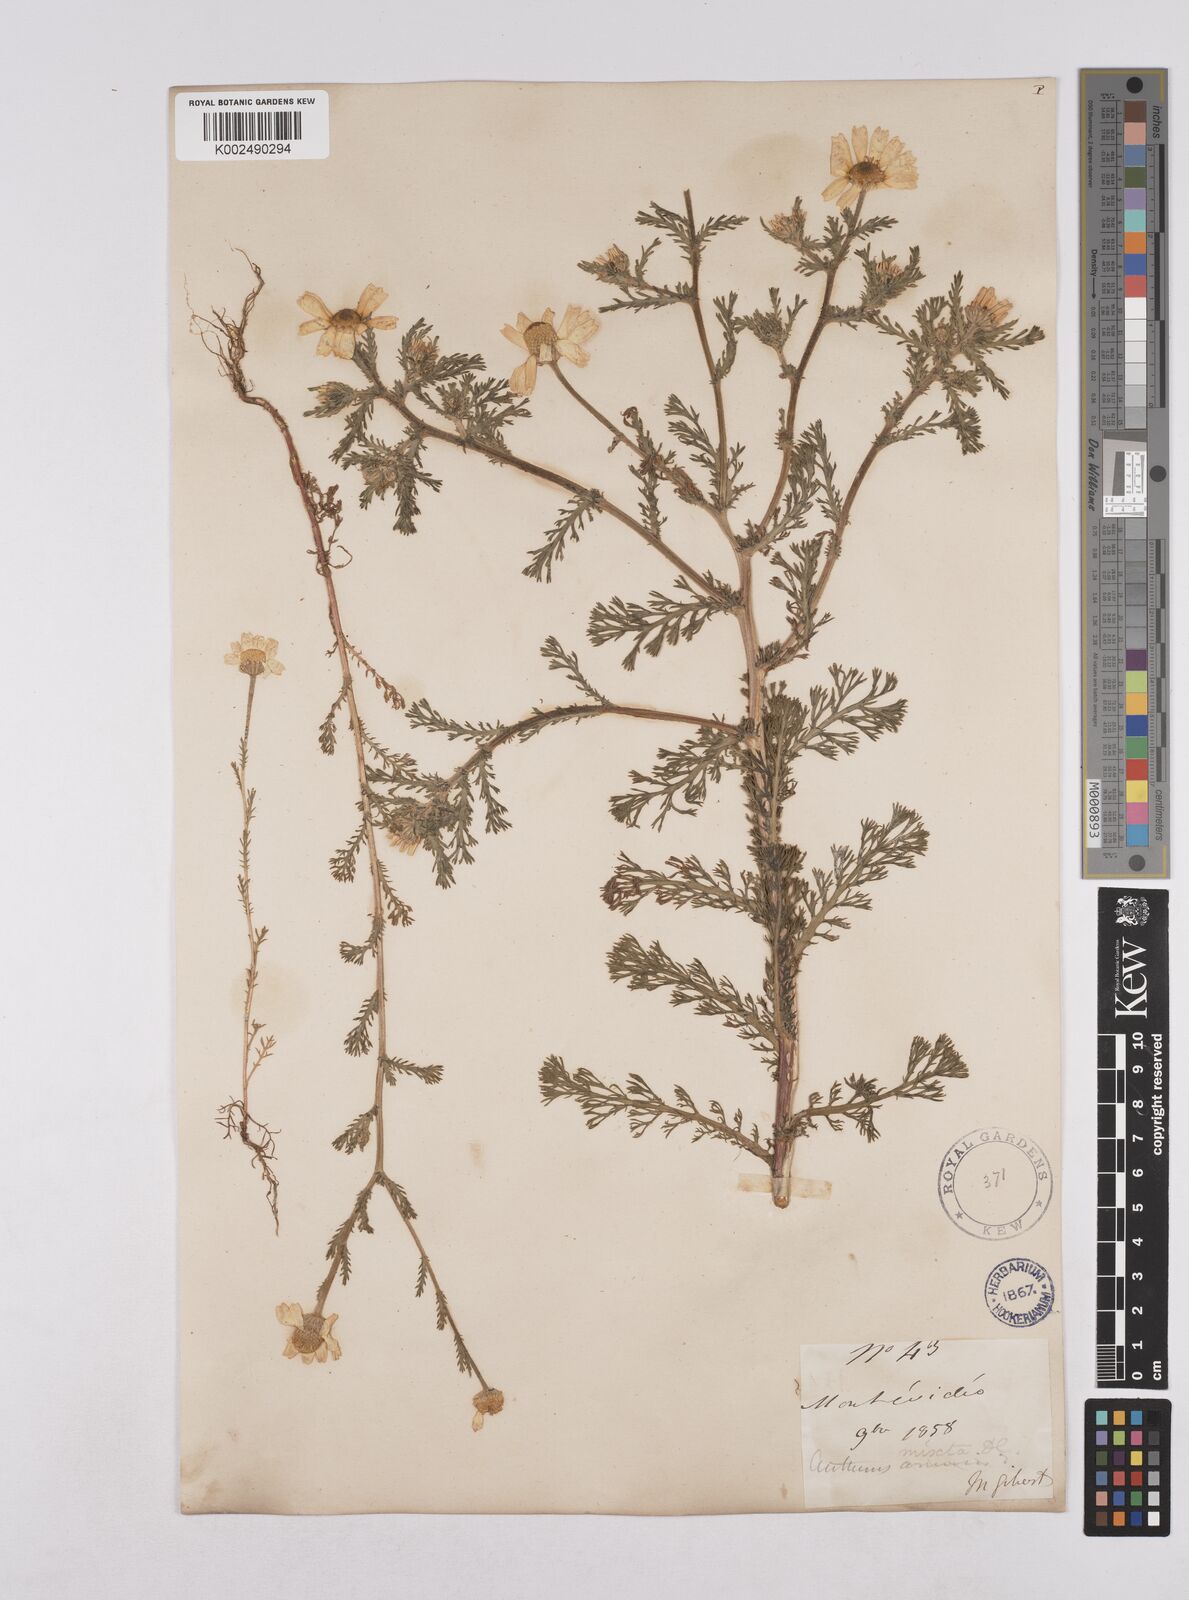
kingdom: Plantae
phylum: Tracheophyta
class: Magnoliopsida
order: Asterales
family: Asteraceae
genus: Cladanthus
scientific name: Cladanthus mixtus
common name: Weedy dogfennel
